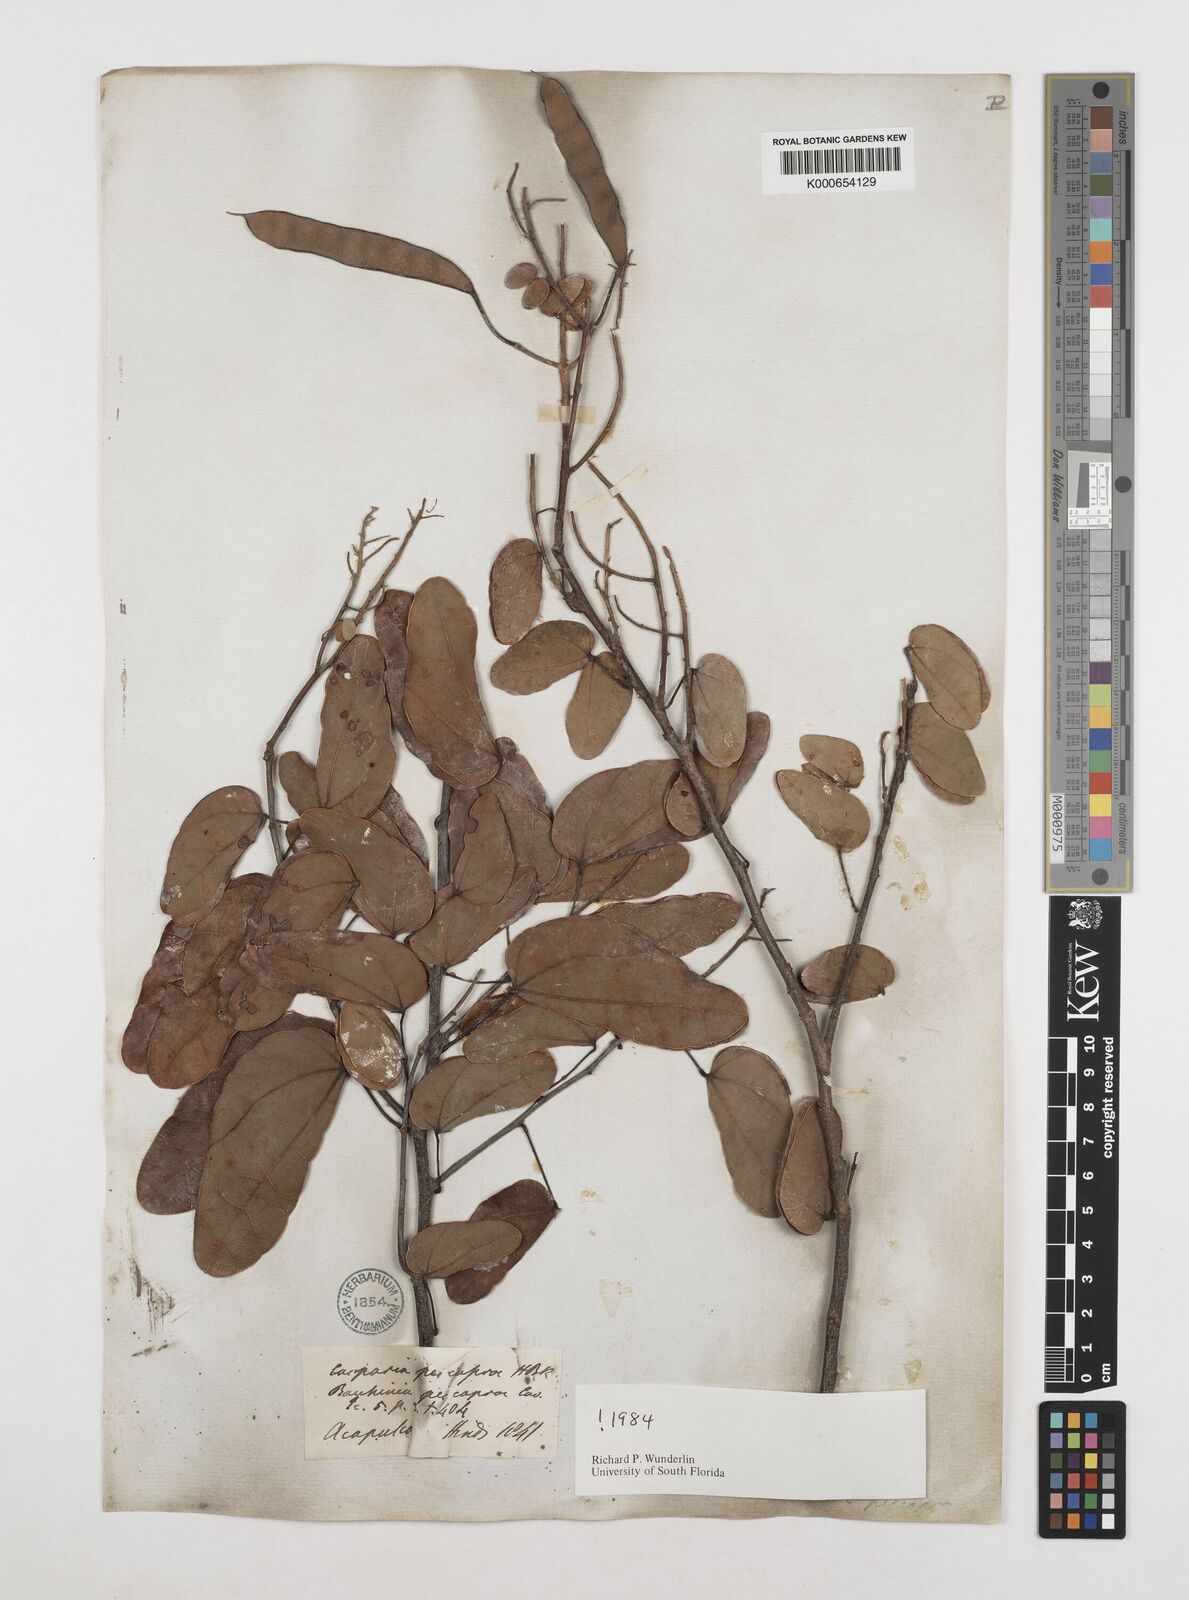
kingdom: Plantae
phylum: Tracheophyta
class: Magnoliopsida
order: Fabales
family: Fabaceae
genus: Bauhinia
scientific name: Bauhinia pes-caprae
